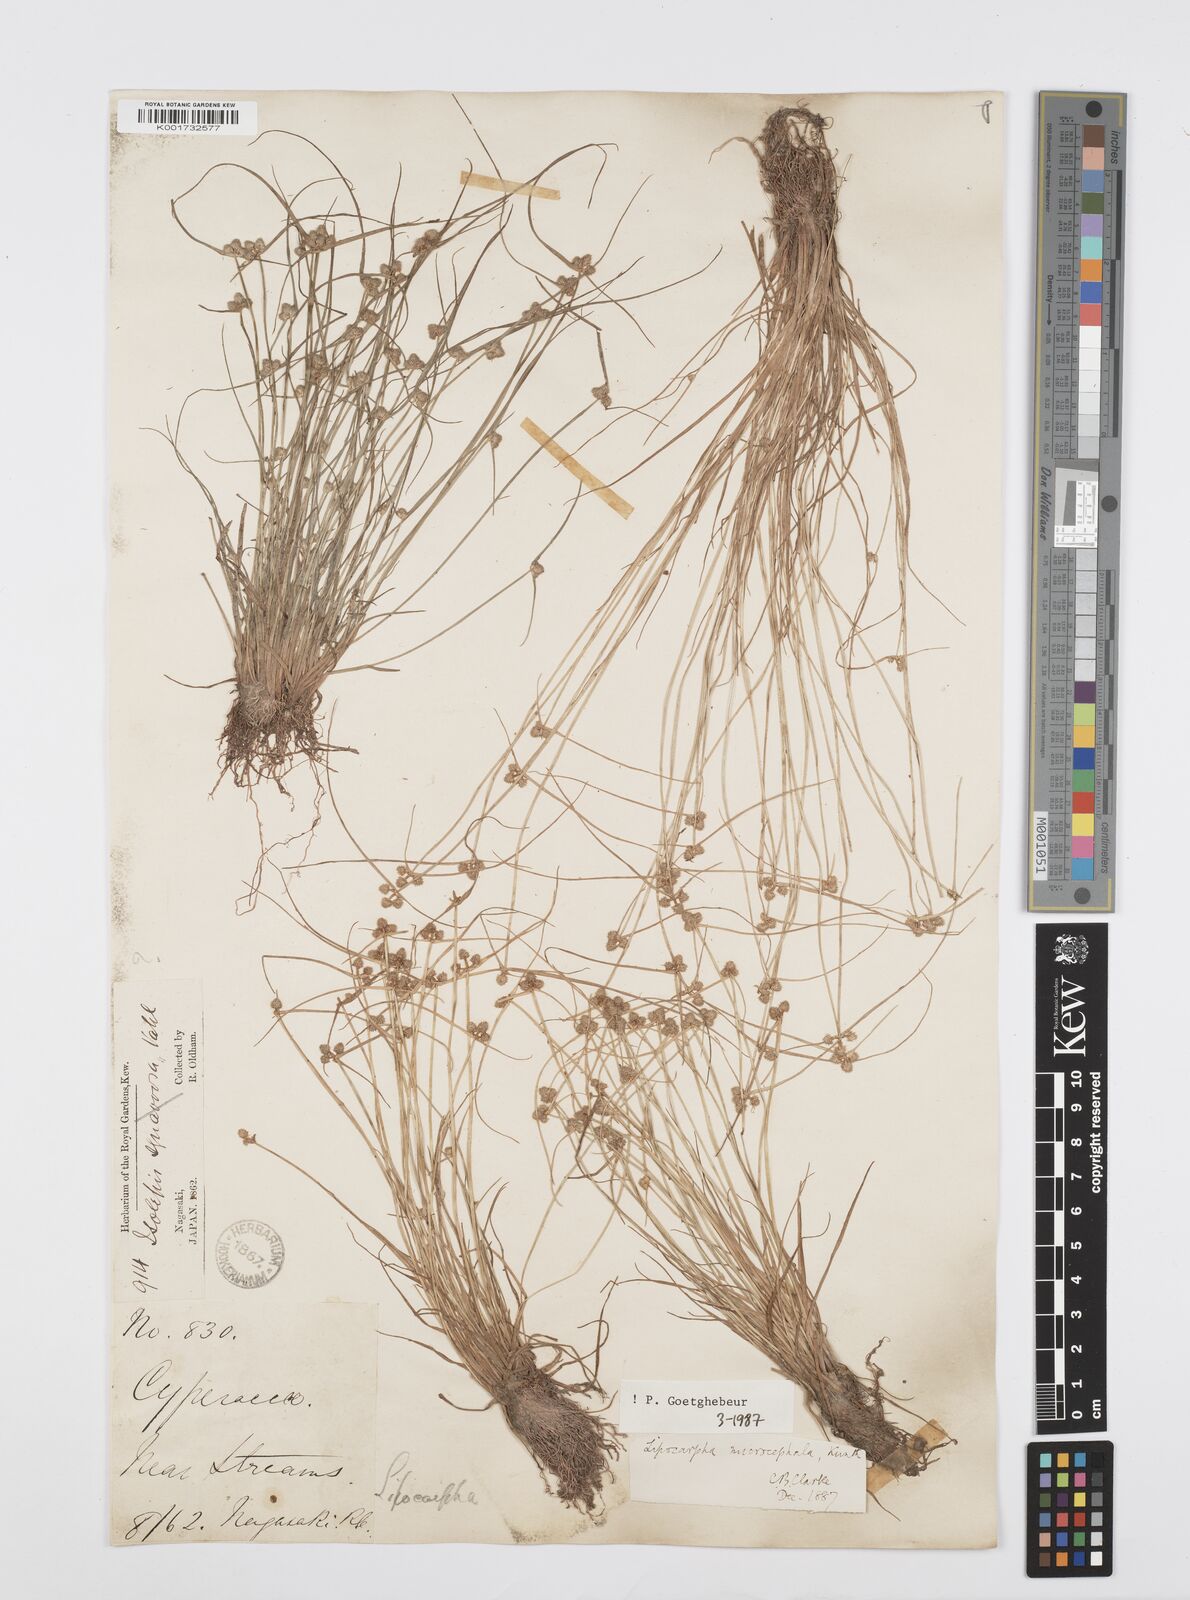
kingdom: Plantae
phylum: Tracheophyta
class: Liliopsida
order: Poales
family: Cyperaceae
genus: Cyperus
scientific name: Cyperus microcephalus
